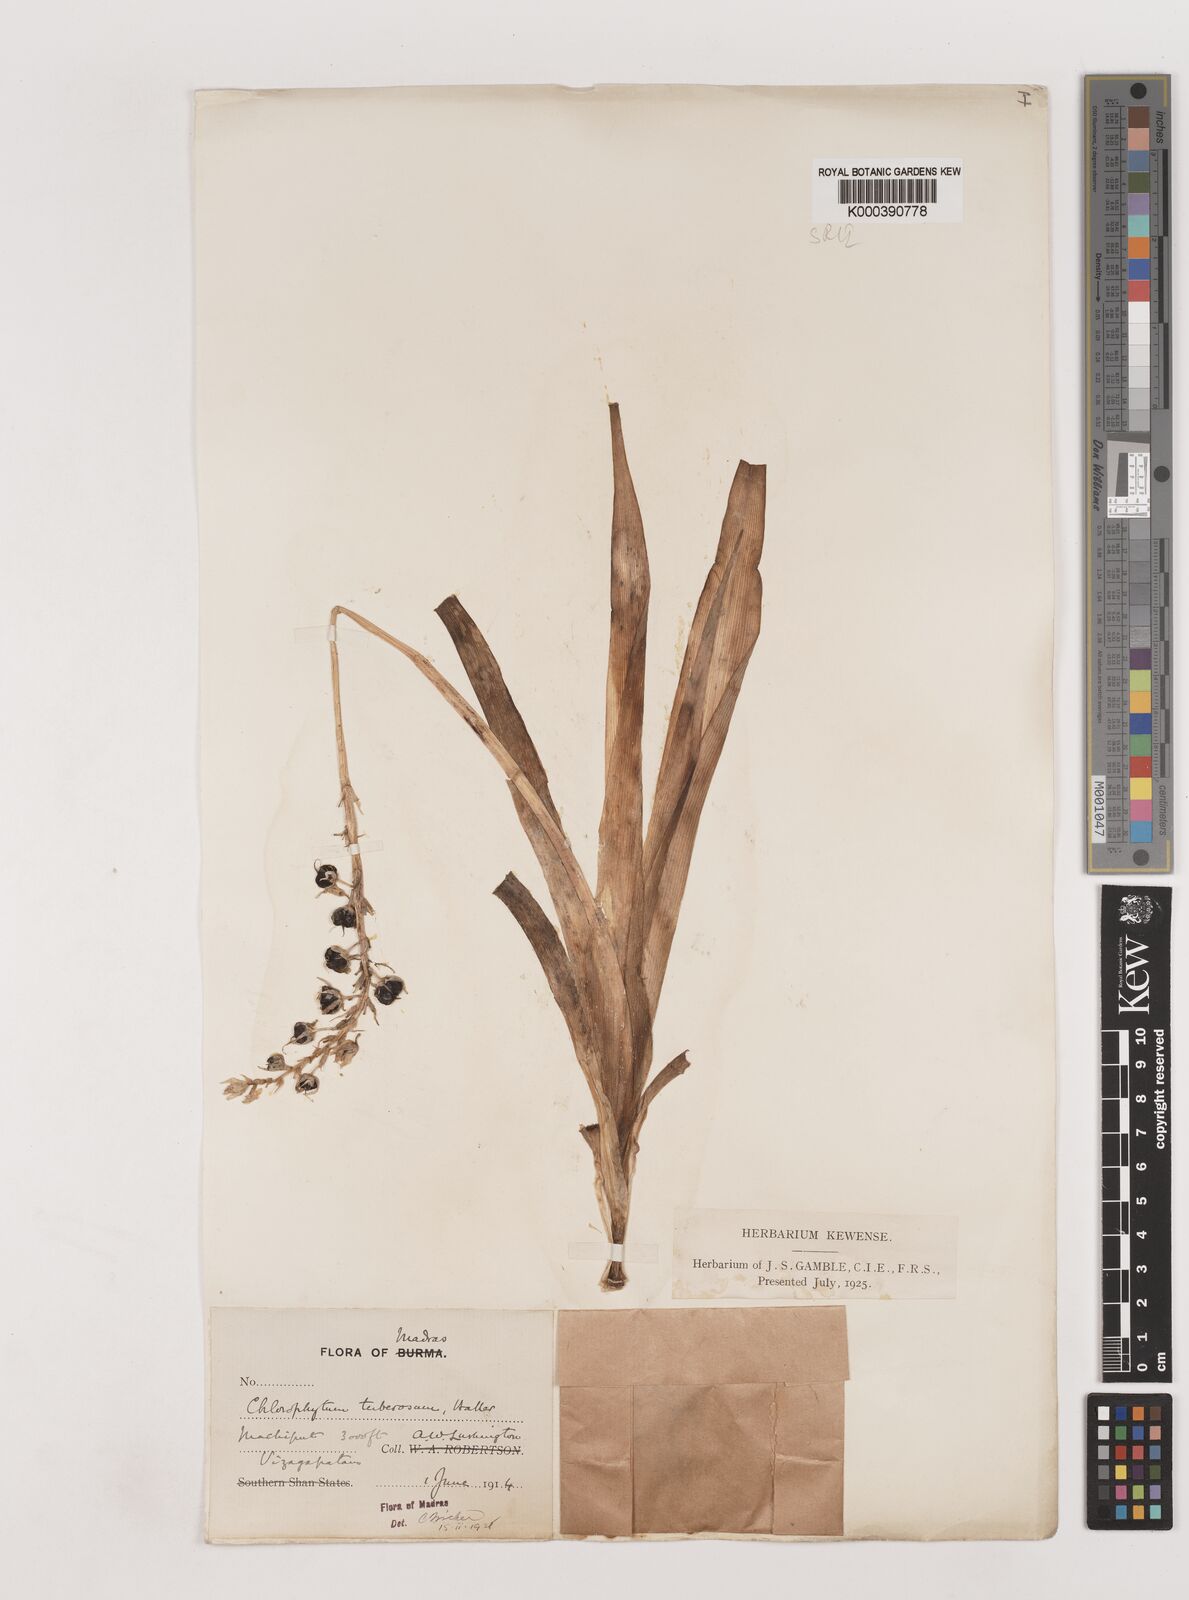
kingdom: Plantae
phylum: Tracheophyta
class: Liliopsida
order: Asparagales
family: Asparagaceae
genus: Chlorophytum
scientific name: Chlorophytum tuberosum
